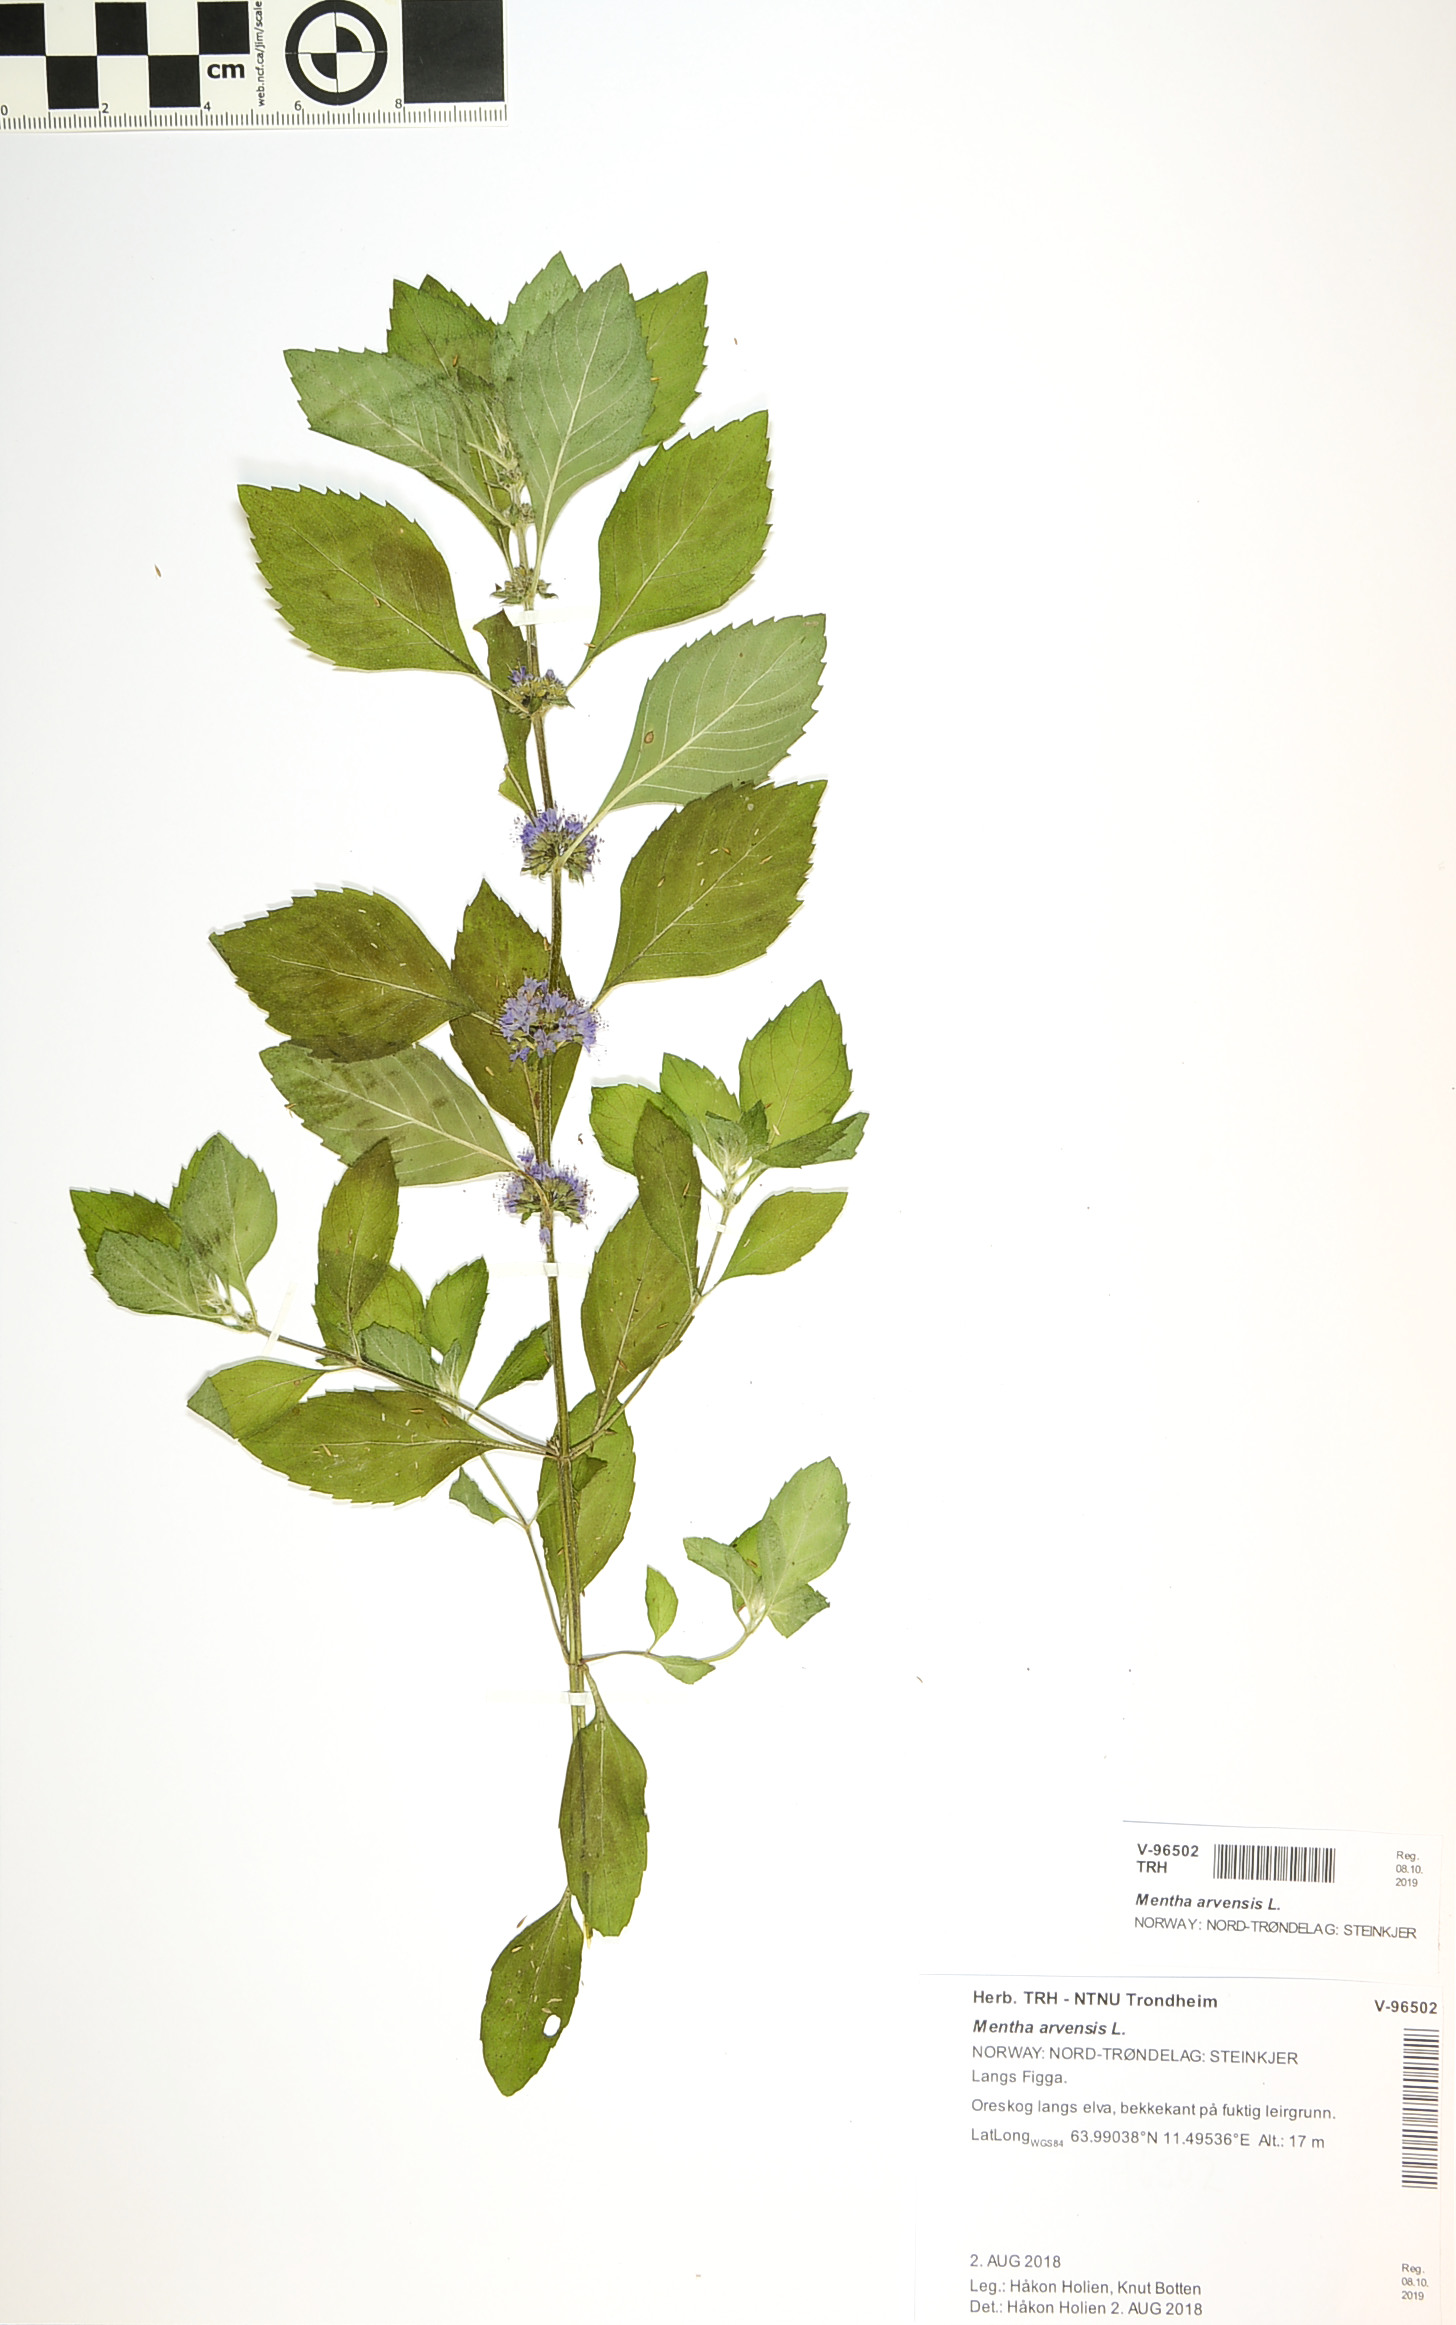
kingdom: Plantae
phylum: Tracheophyta
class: Magnoliopsida
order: Lamiales
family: Lamiaceae
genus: Mentha
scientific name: Mentha arvensis
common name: Corn mint
